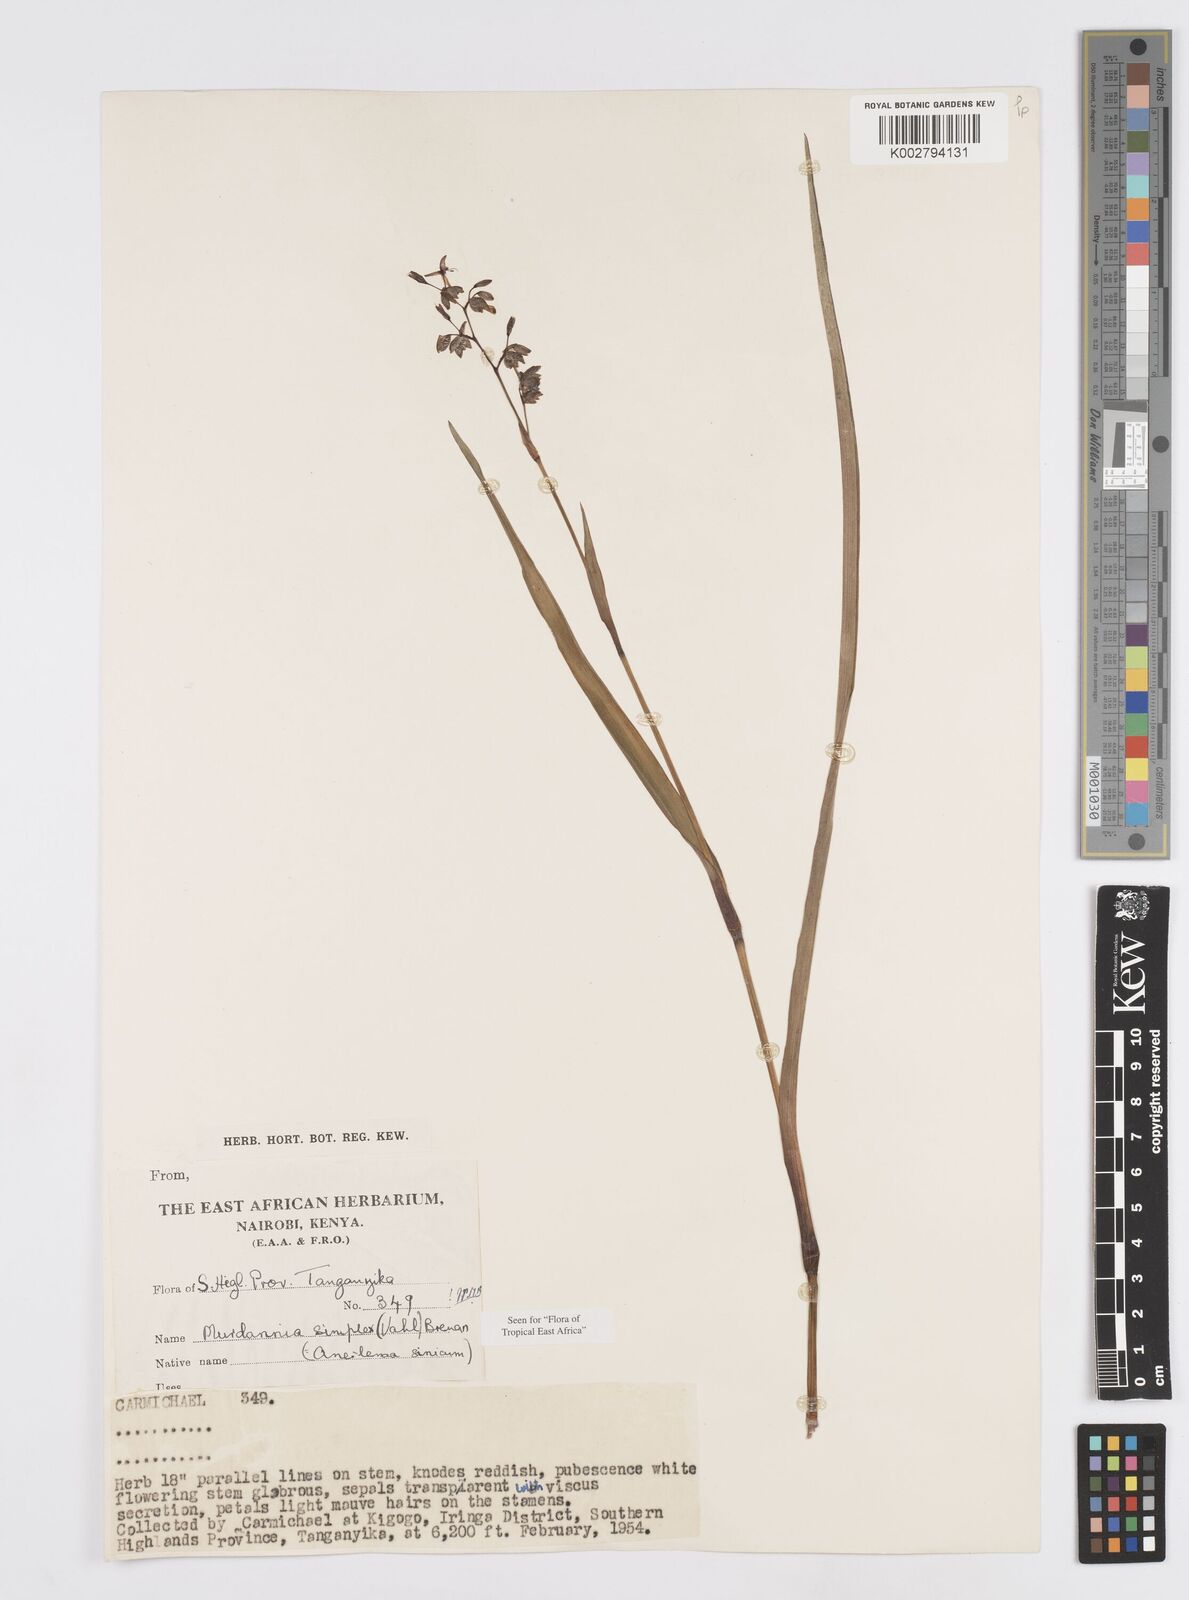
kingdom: Plantae
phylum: Tracheophyta
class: Liliopsida
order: Commelinales
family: Commelinaceae
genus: Murdannia
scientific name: Murdannia simplex
